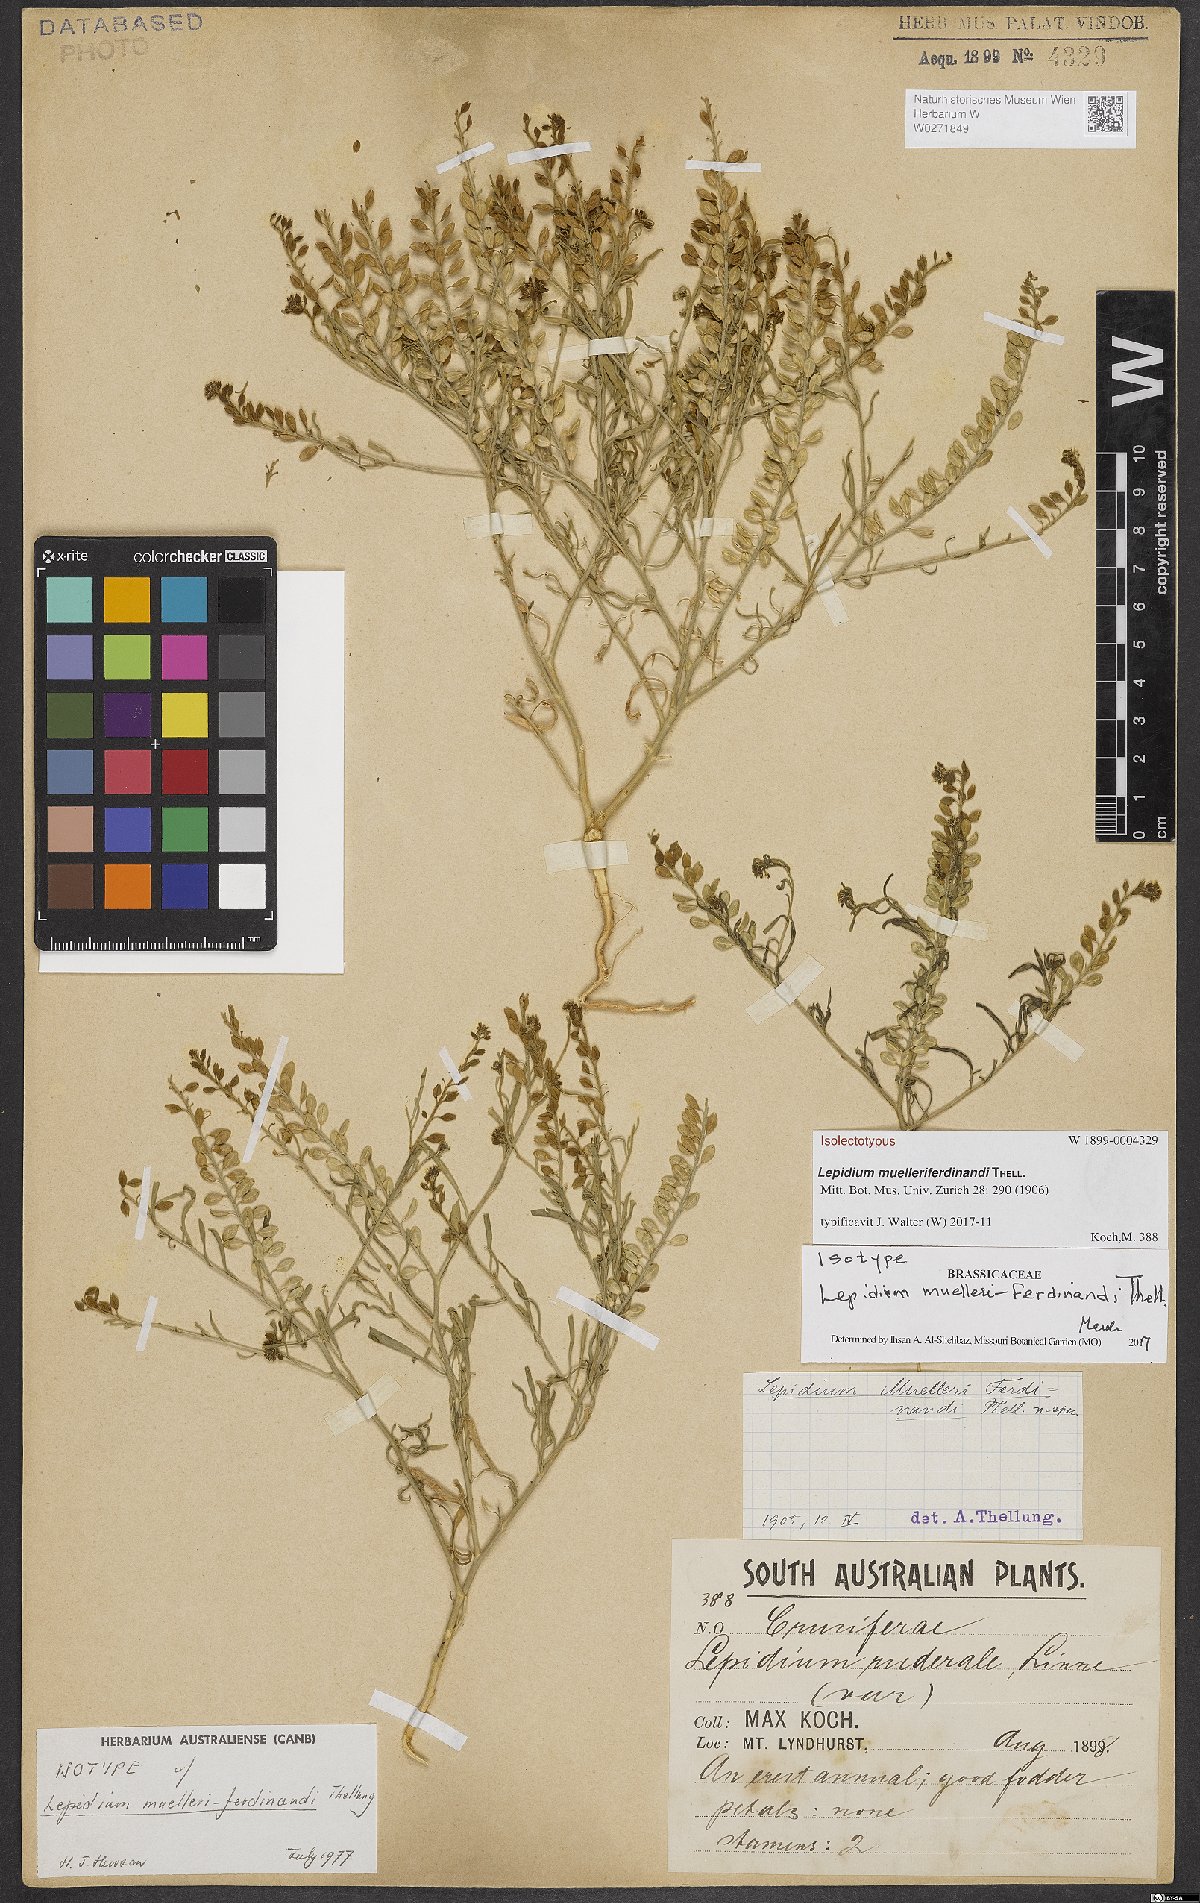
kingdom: Plantae
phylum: Tracheophyta
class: Magnoliopsida
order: Brassicales
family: Brassicaceae
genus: Lepidium
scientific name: Lepidium muelleriferdinandi
